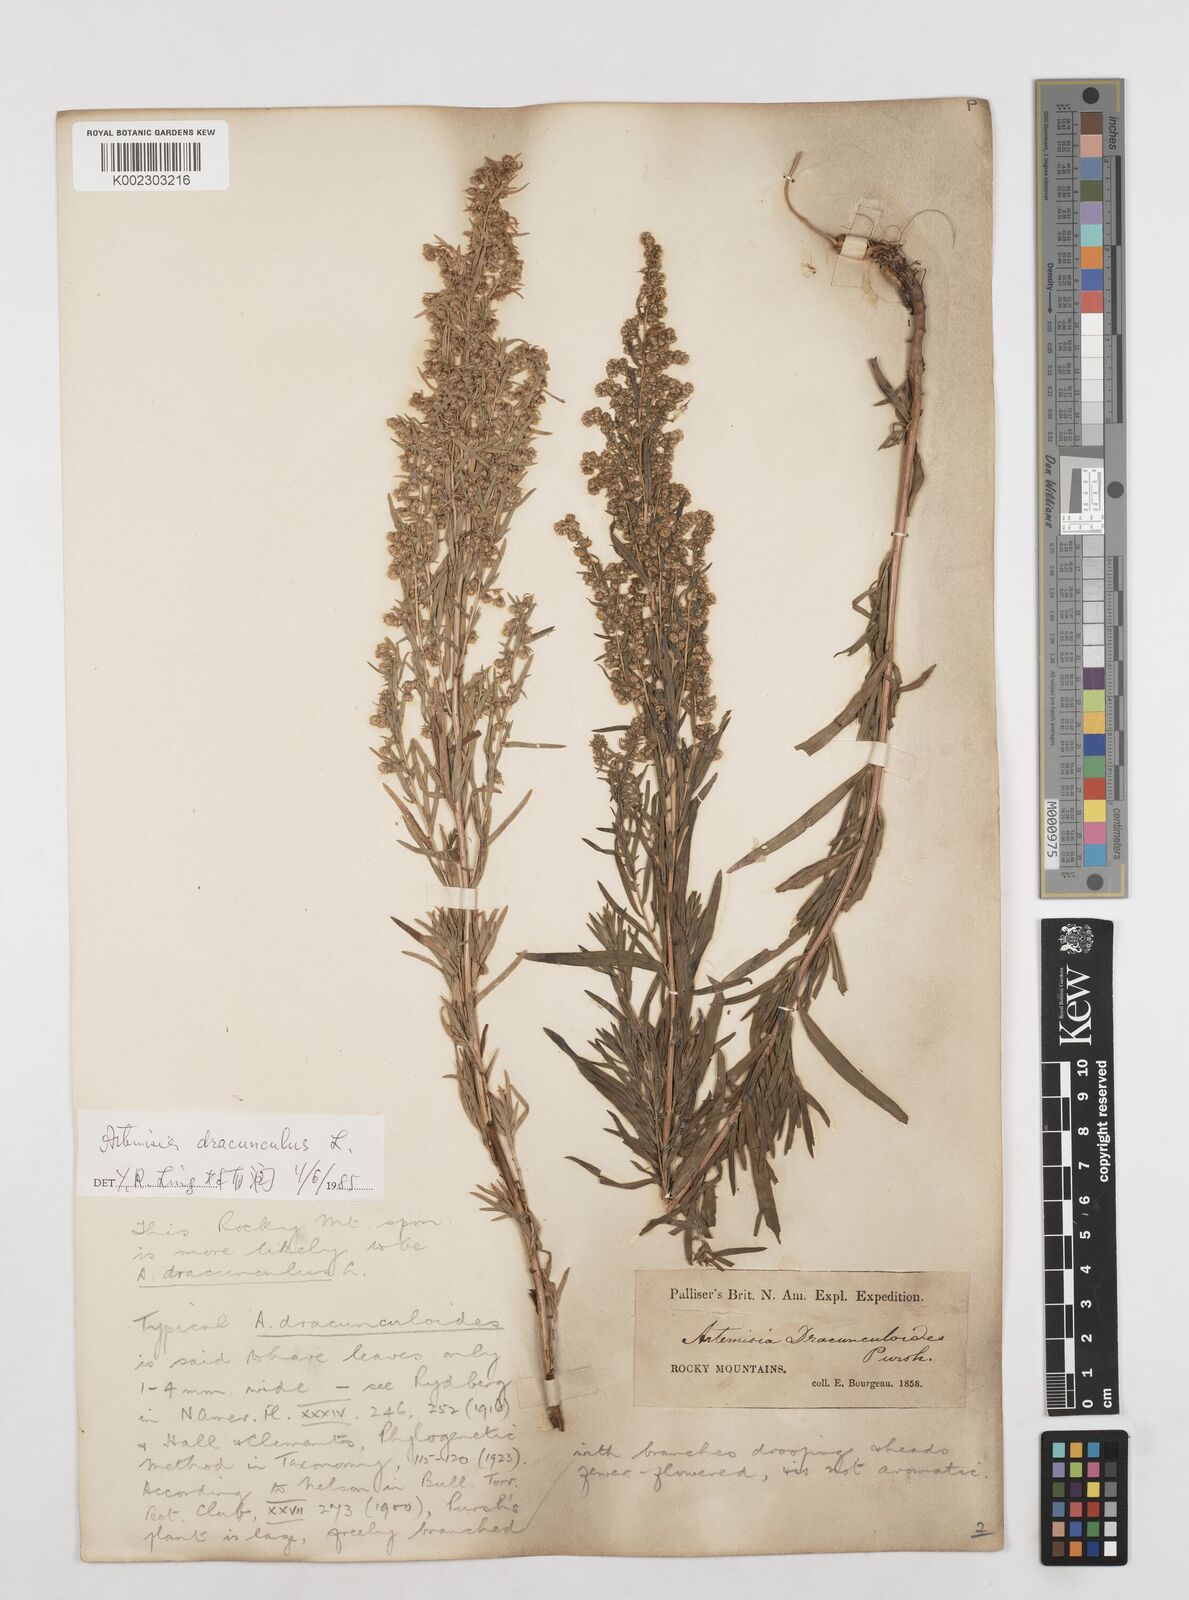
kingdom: Plantae
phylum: Tracheophyta
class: Magnoliopsida
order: Asterales
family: Asteraceae
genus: Artemisia
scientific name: Artemisia dracunculus
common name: Tarragon
